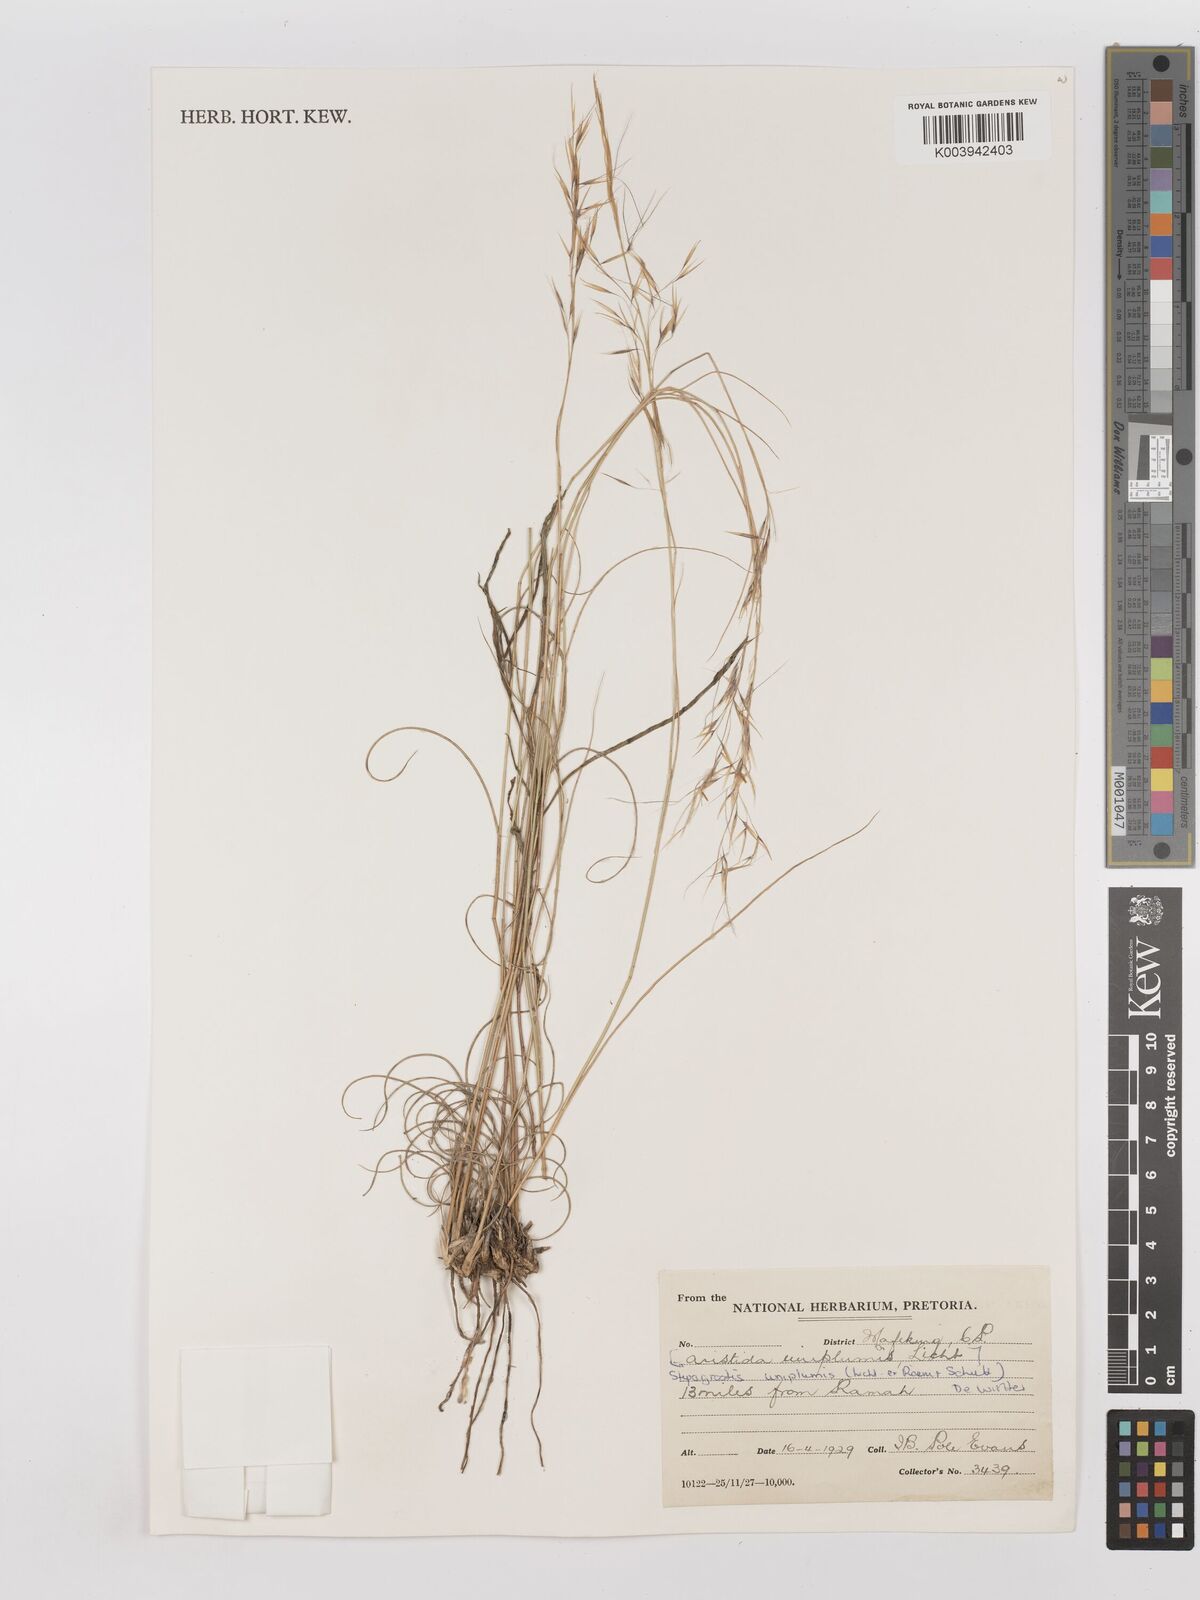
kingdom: Plantae
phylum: Tracheophyta
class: Liliopsida
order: Poales
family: Poaceae
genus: Stipagrostis
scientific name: Stipagrostis uniplumis
